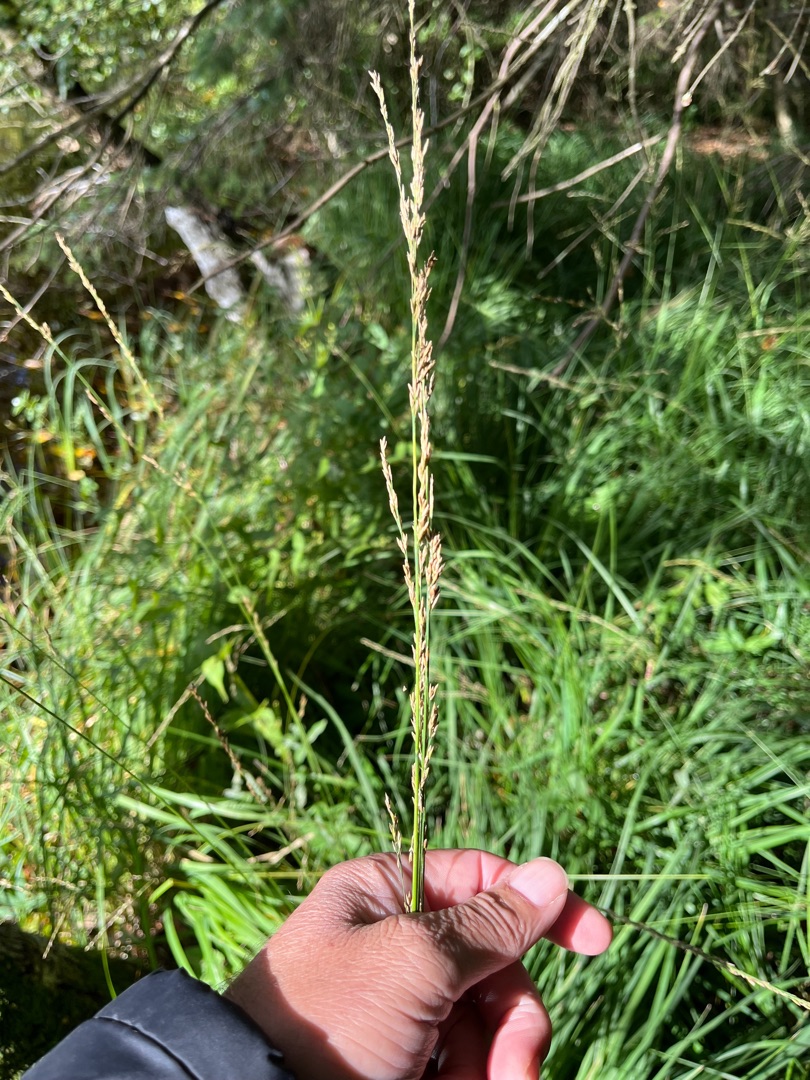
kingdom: Plantae
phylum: Tracheophyta
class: Liliopsida
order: Poales
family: Poaceae
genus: Molinia
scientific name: Molinia caerulea
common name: Blåtop
